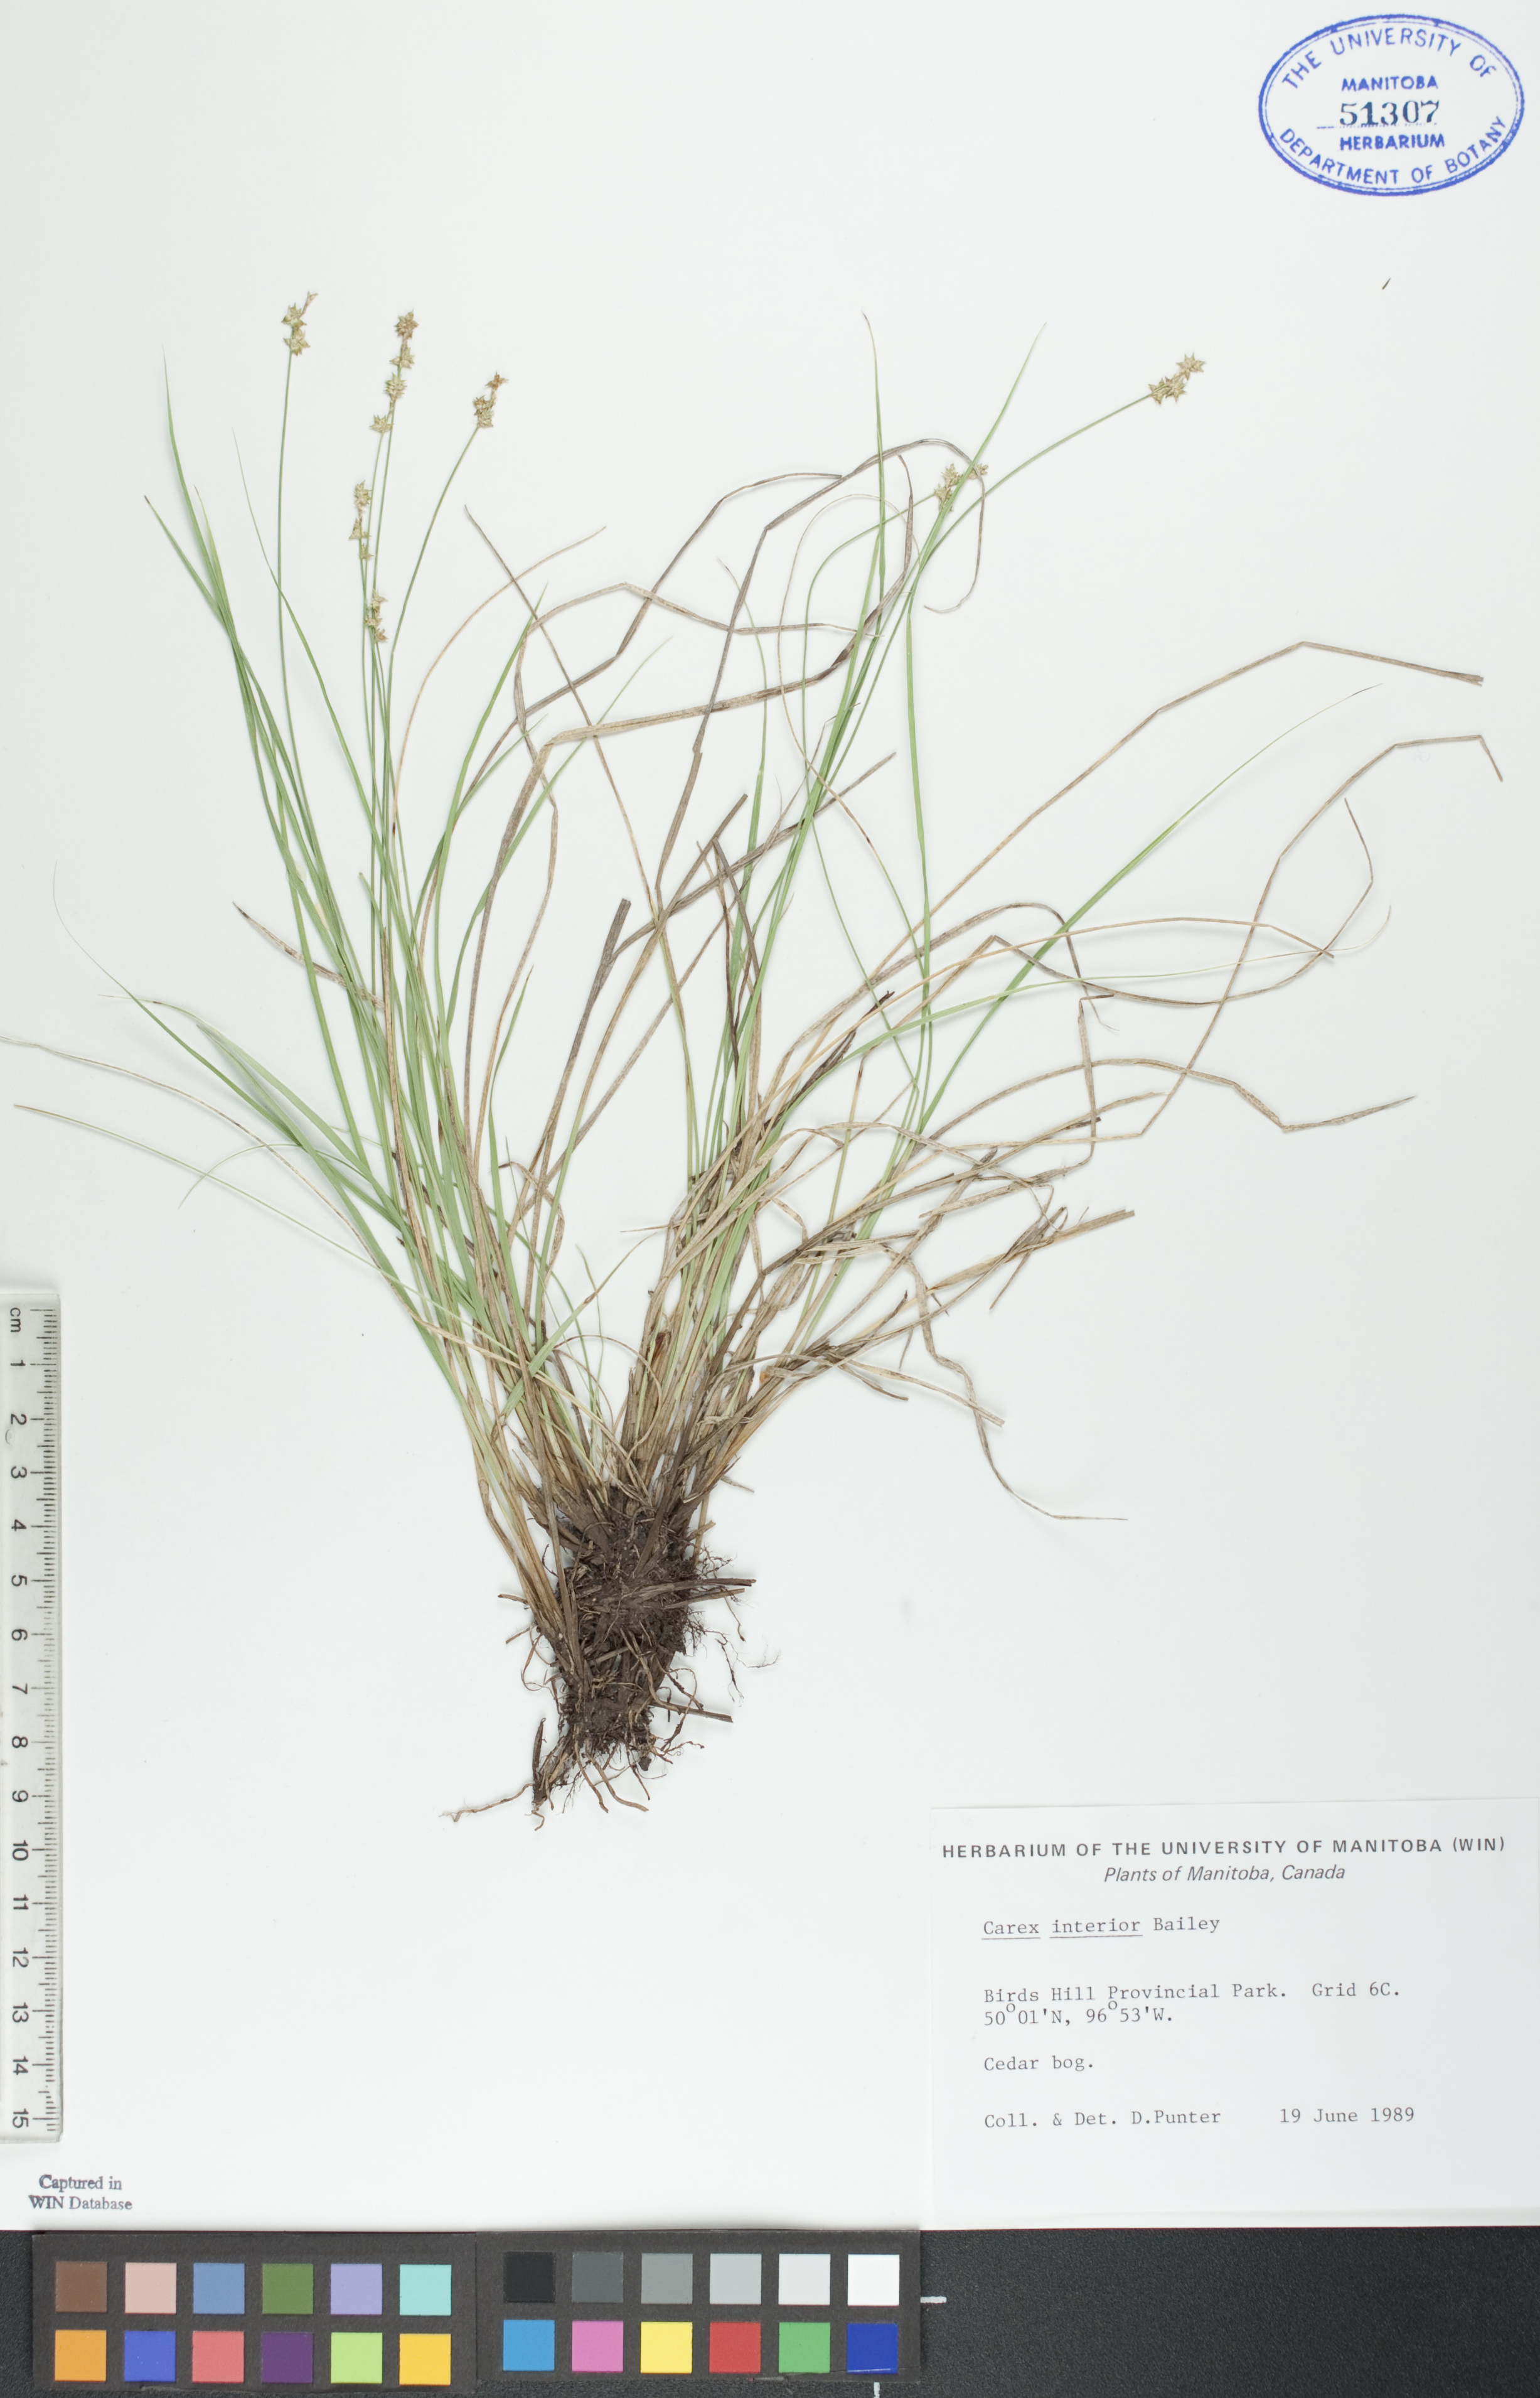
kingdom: Plantae
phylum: Tracheophyta
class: Liliopsida
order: Poales
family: Cyperaceae
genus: Carex
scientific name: Carex interior
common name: Inland sedge
